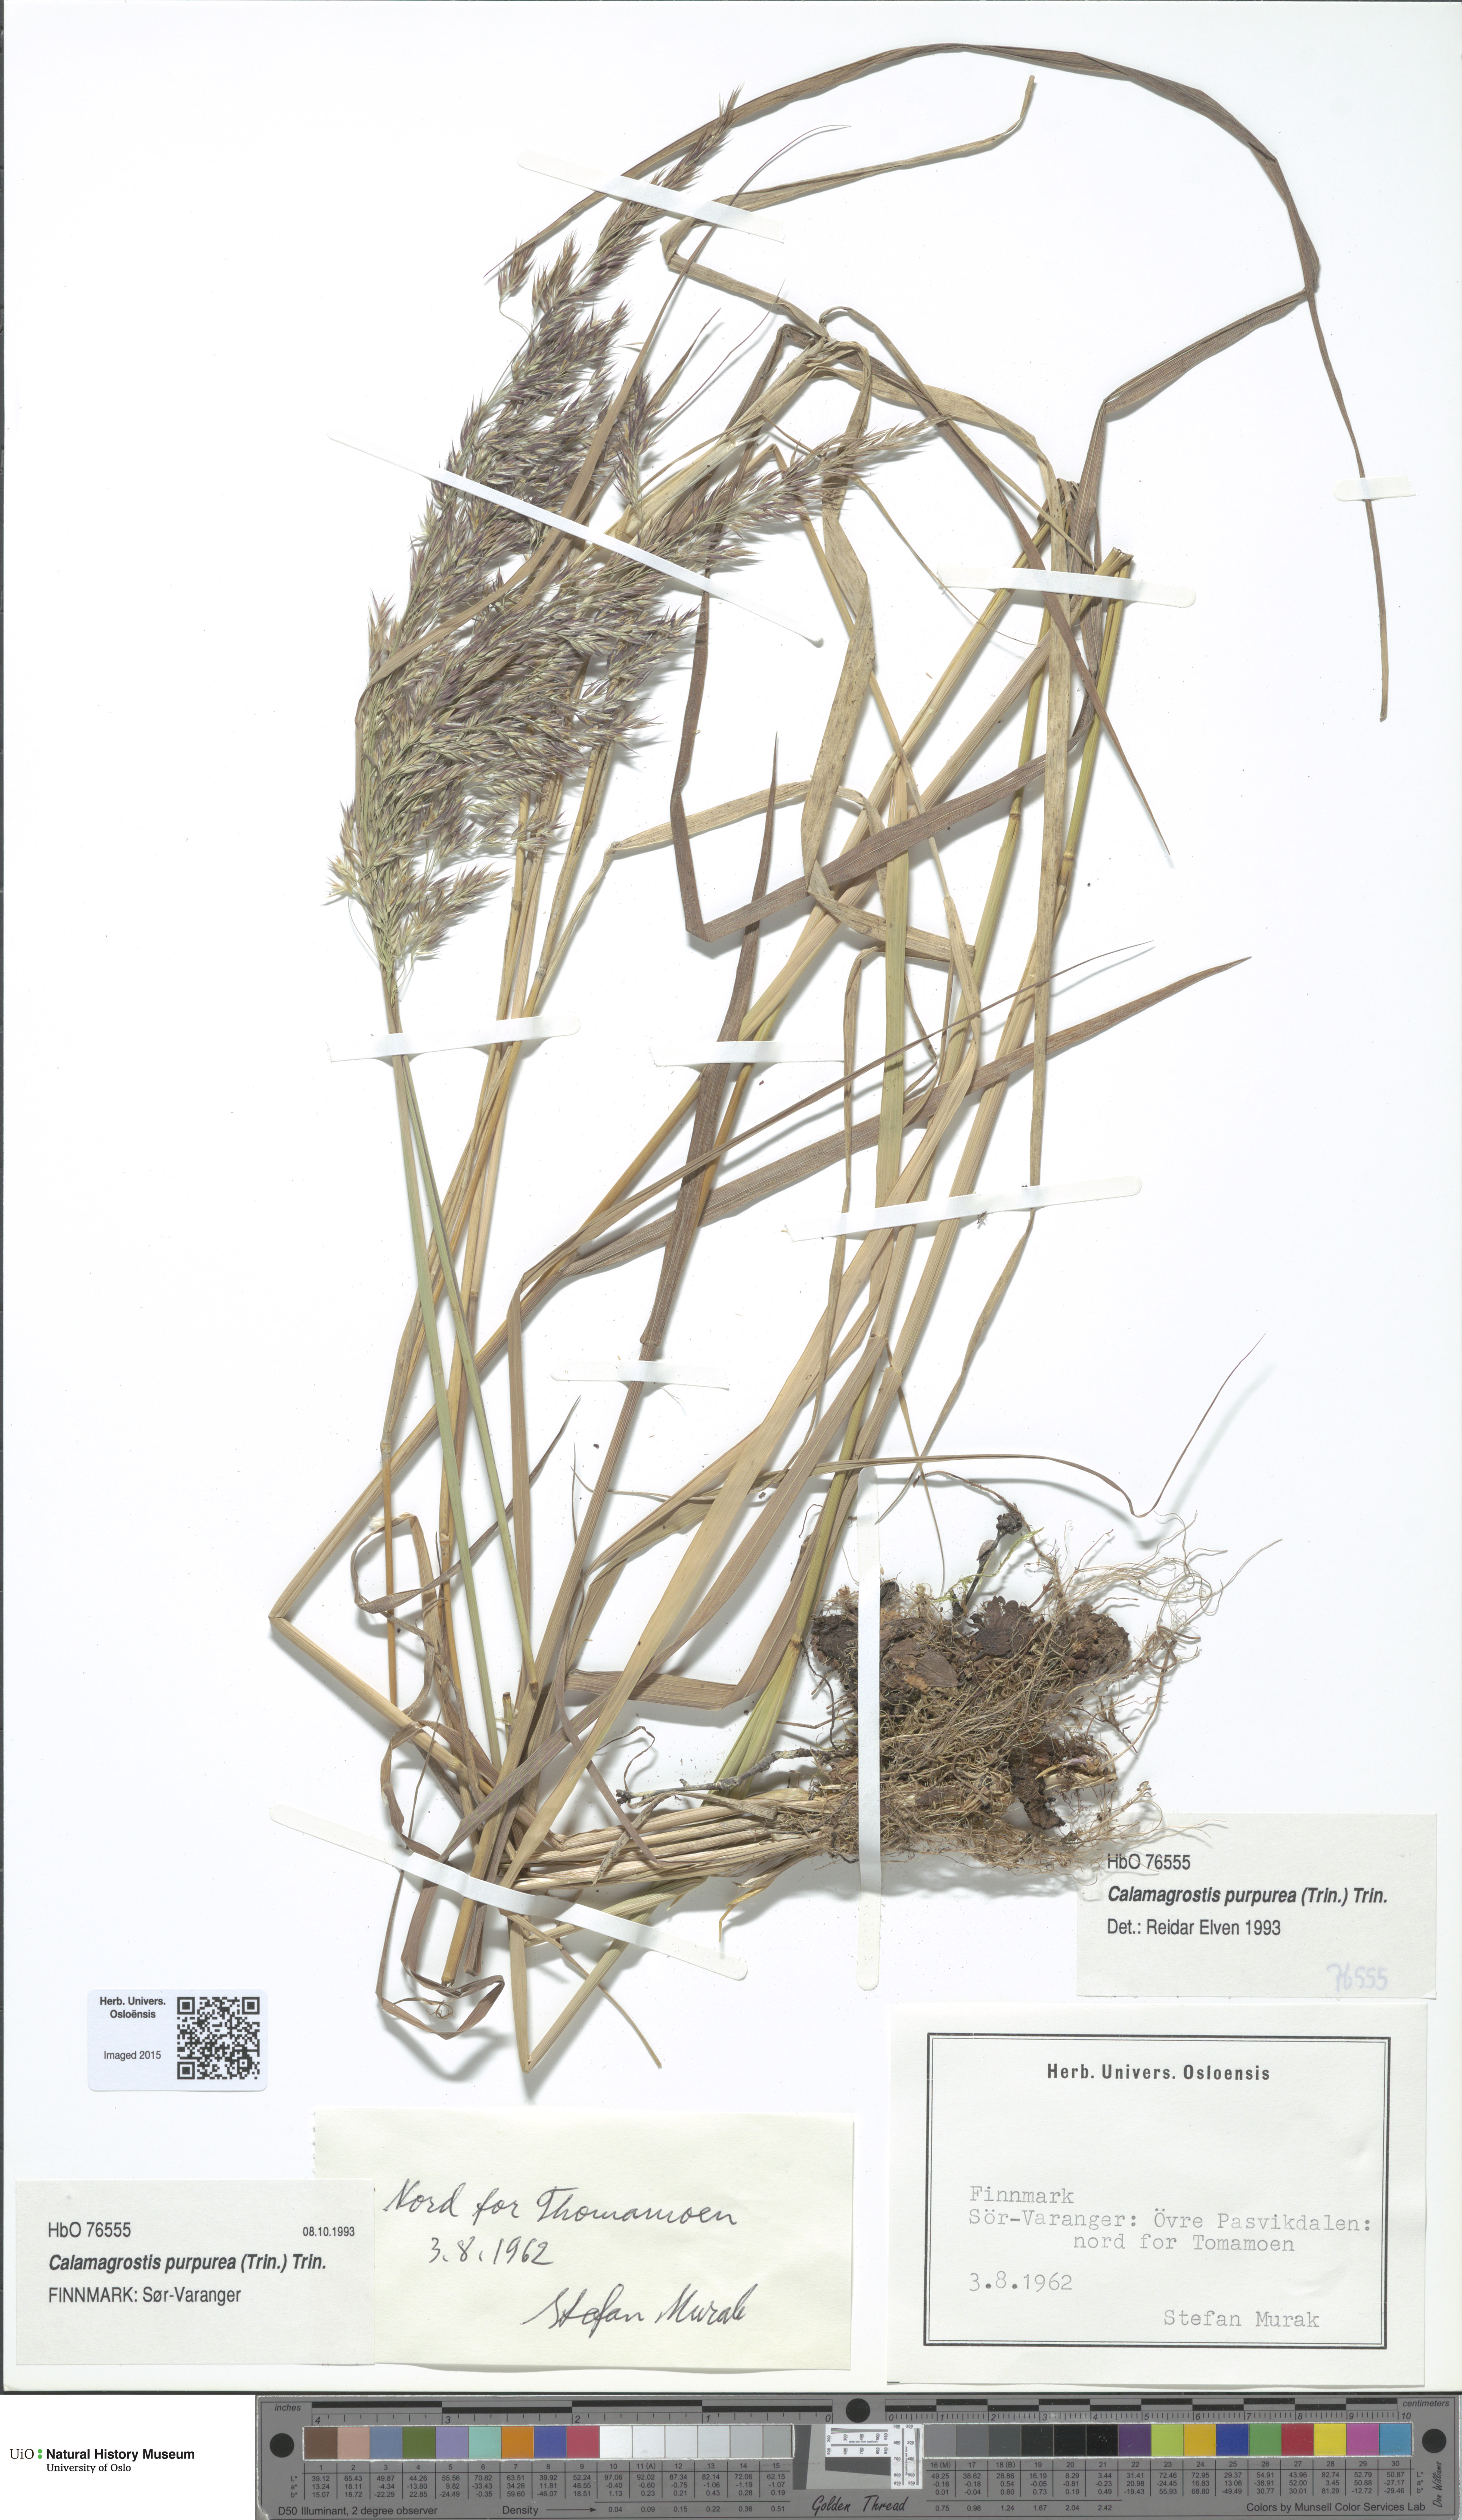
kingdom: Plantae
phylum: Tracheophyta
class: Liliopsida
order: Poales
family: Poaceae
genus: Calamagrostis
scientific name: Calamagrostis purpurea
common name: Scandinavian small-reed
